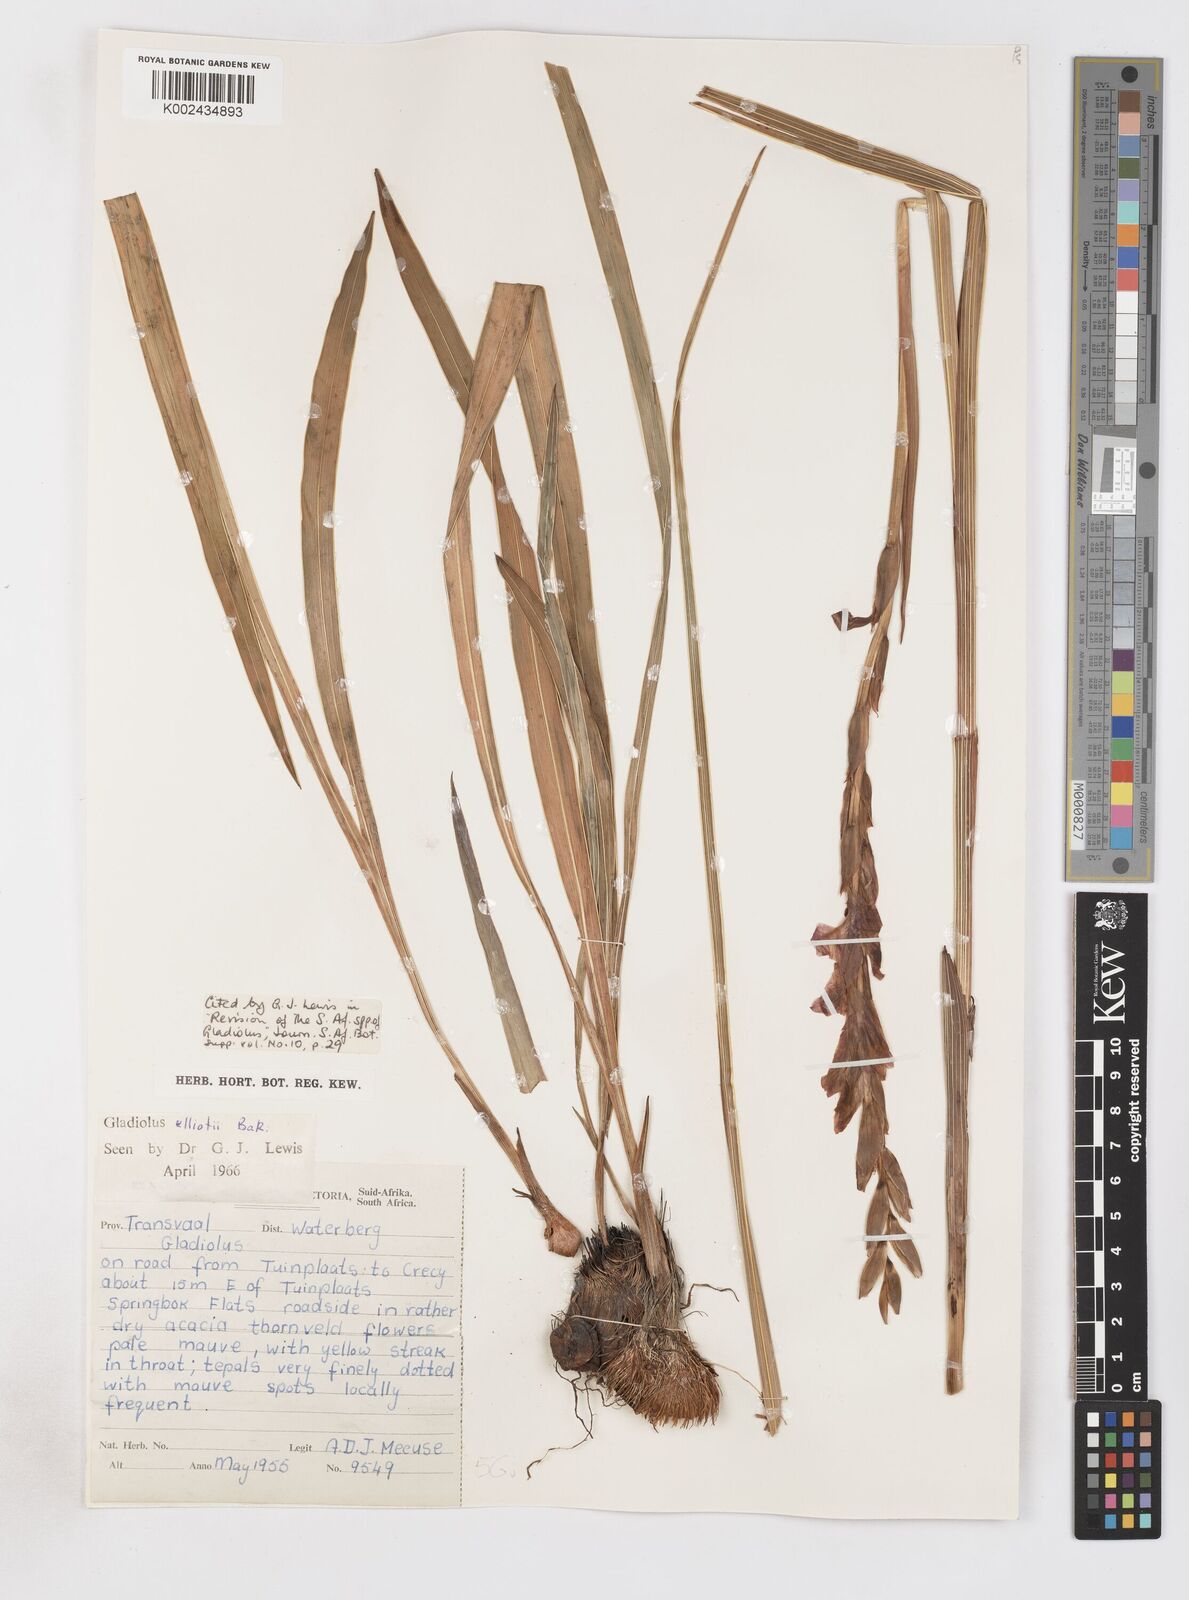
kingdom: Plantae
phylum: Tracheophyta
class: Liliopsida
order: Asparagales
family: Iridaceae
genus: Gladiolus
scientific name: Gladiolus elliotii
